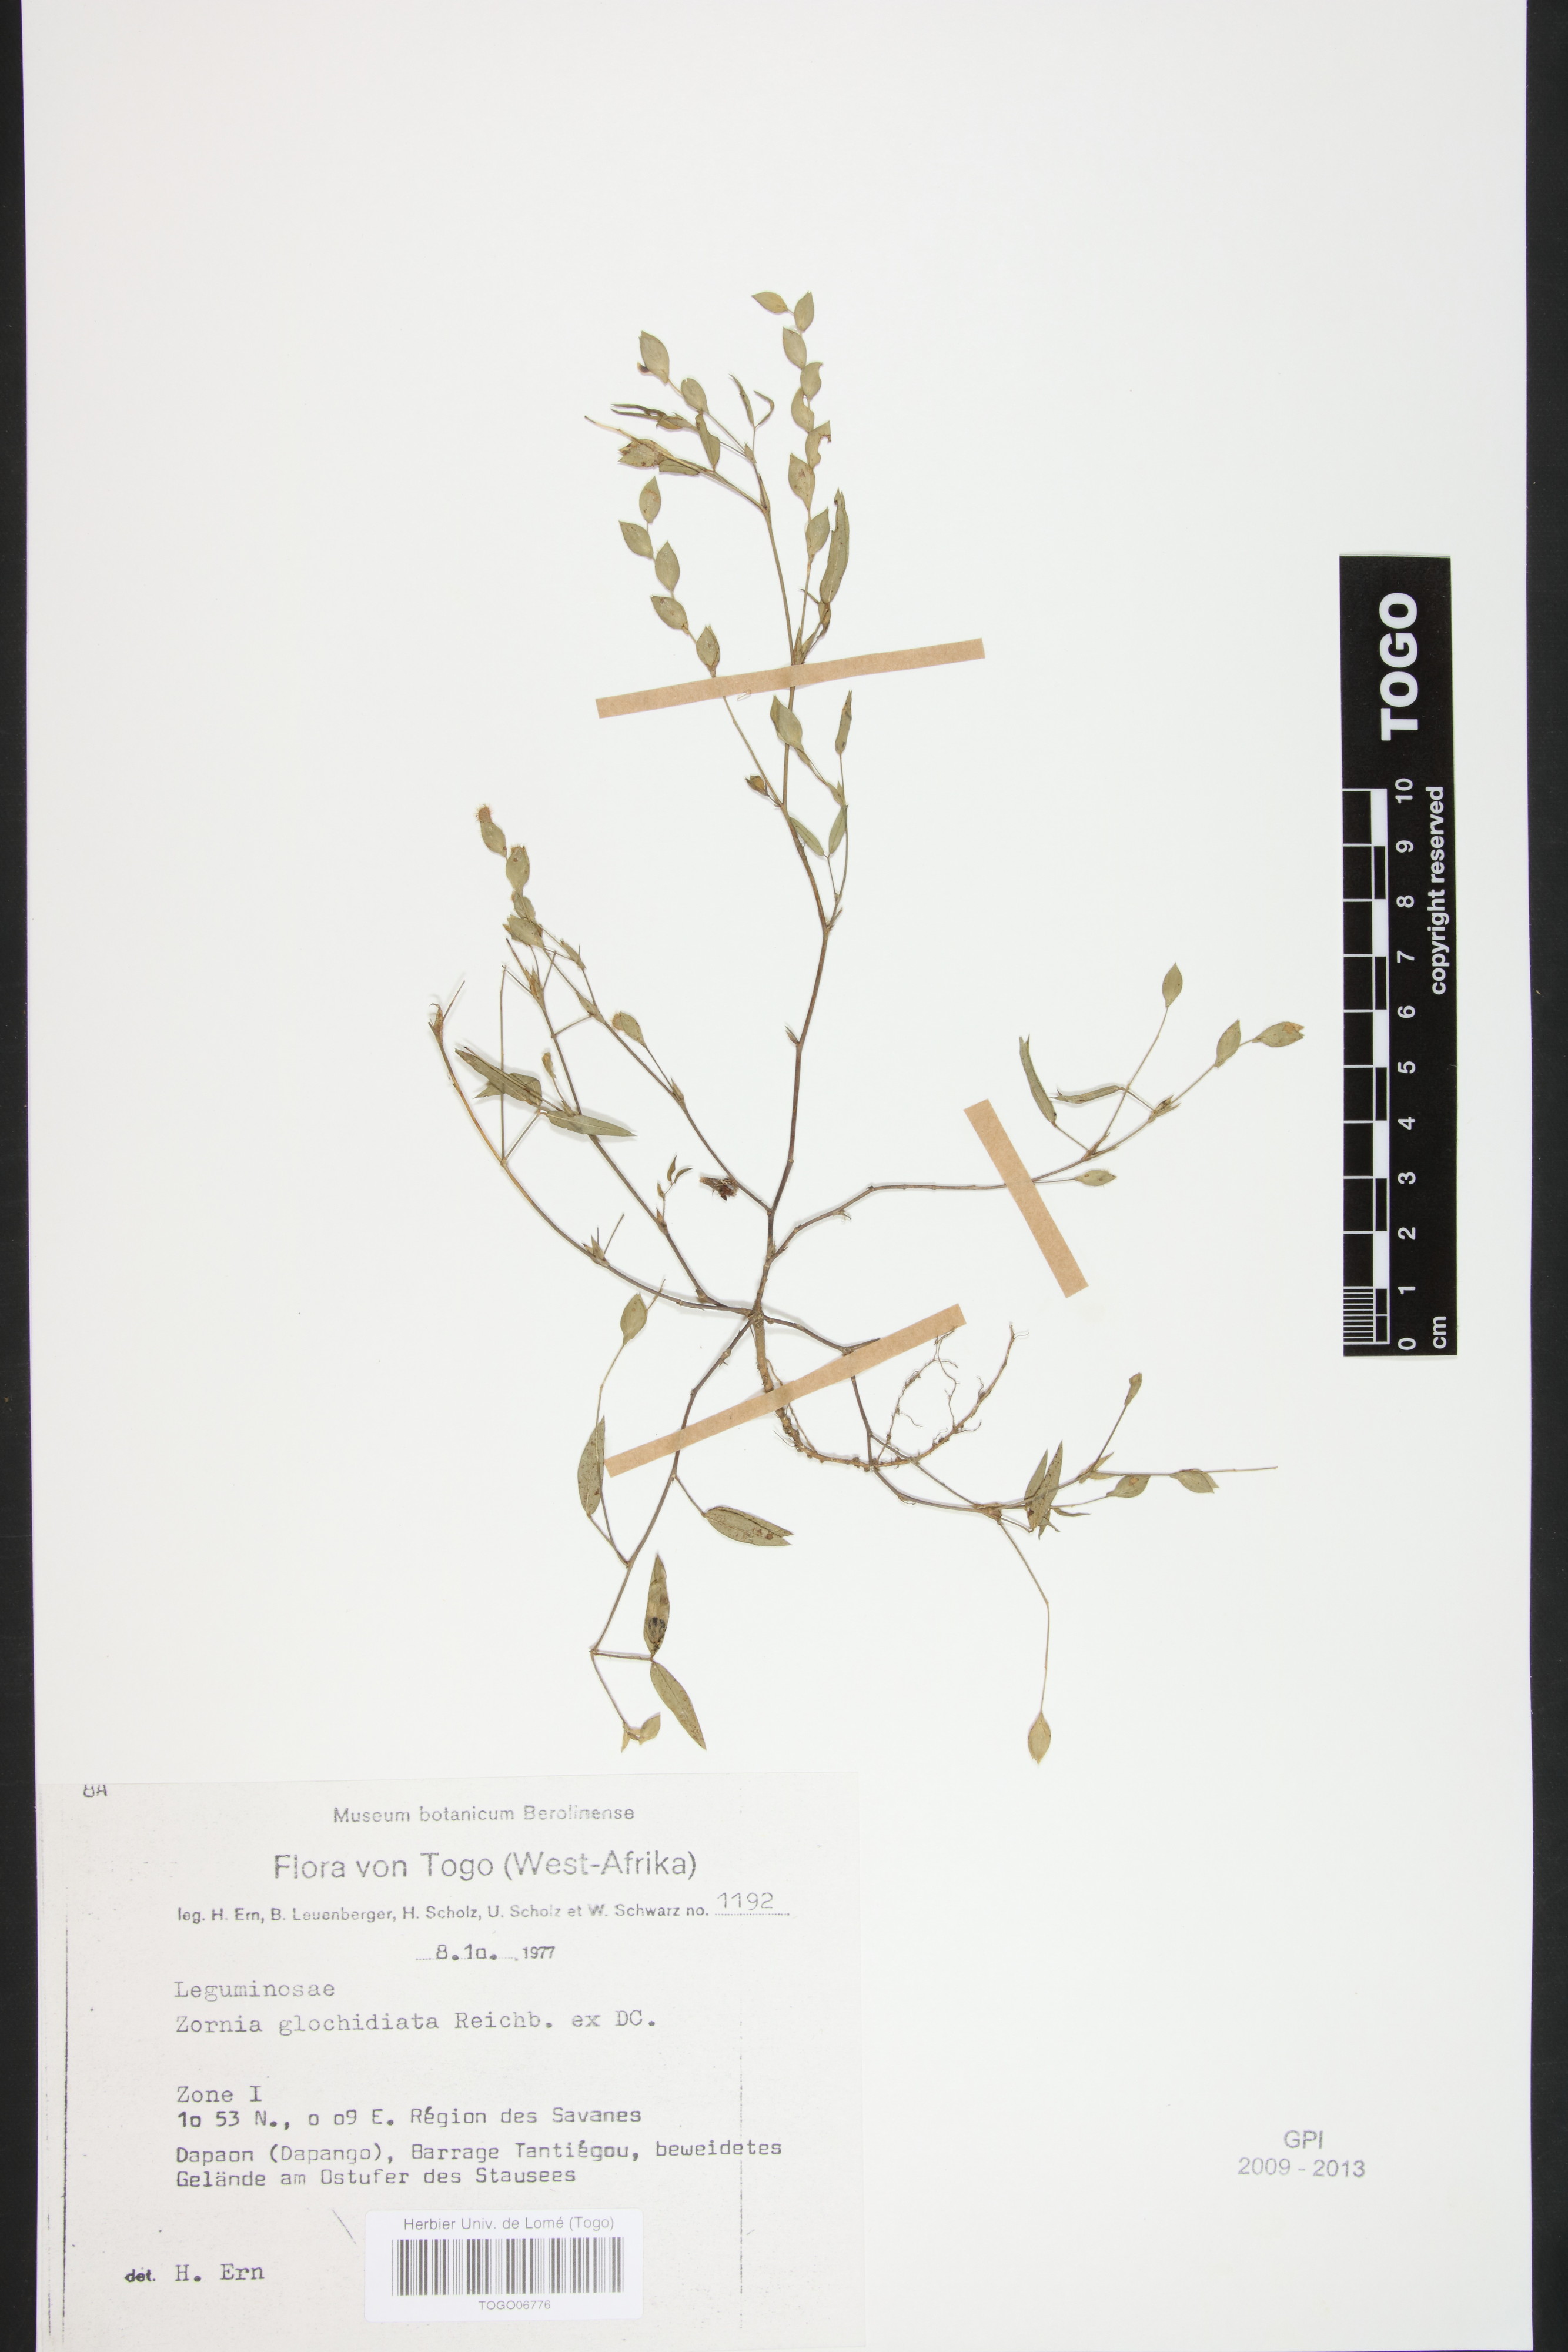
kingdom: Plantae
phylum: Tracheophyta
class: Magnoliopsida
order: Fabales
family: Fabaceae
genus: Zornia
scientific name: Zornia glochidiata
